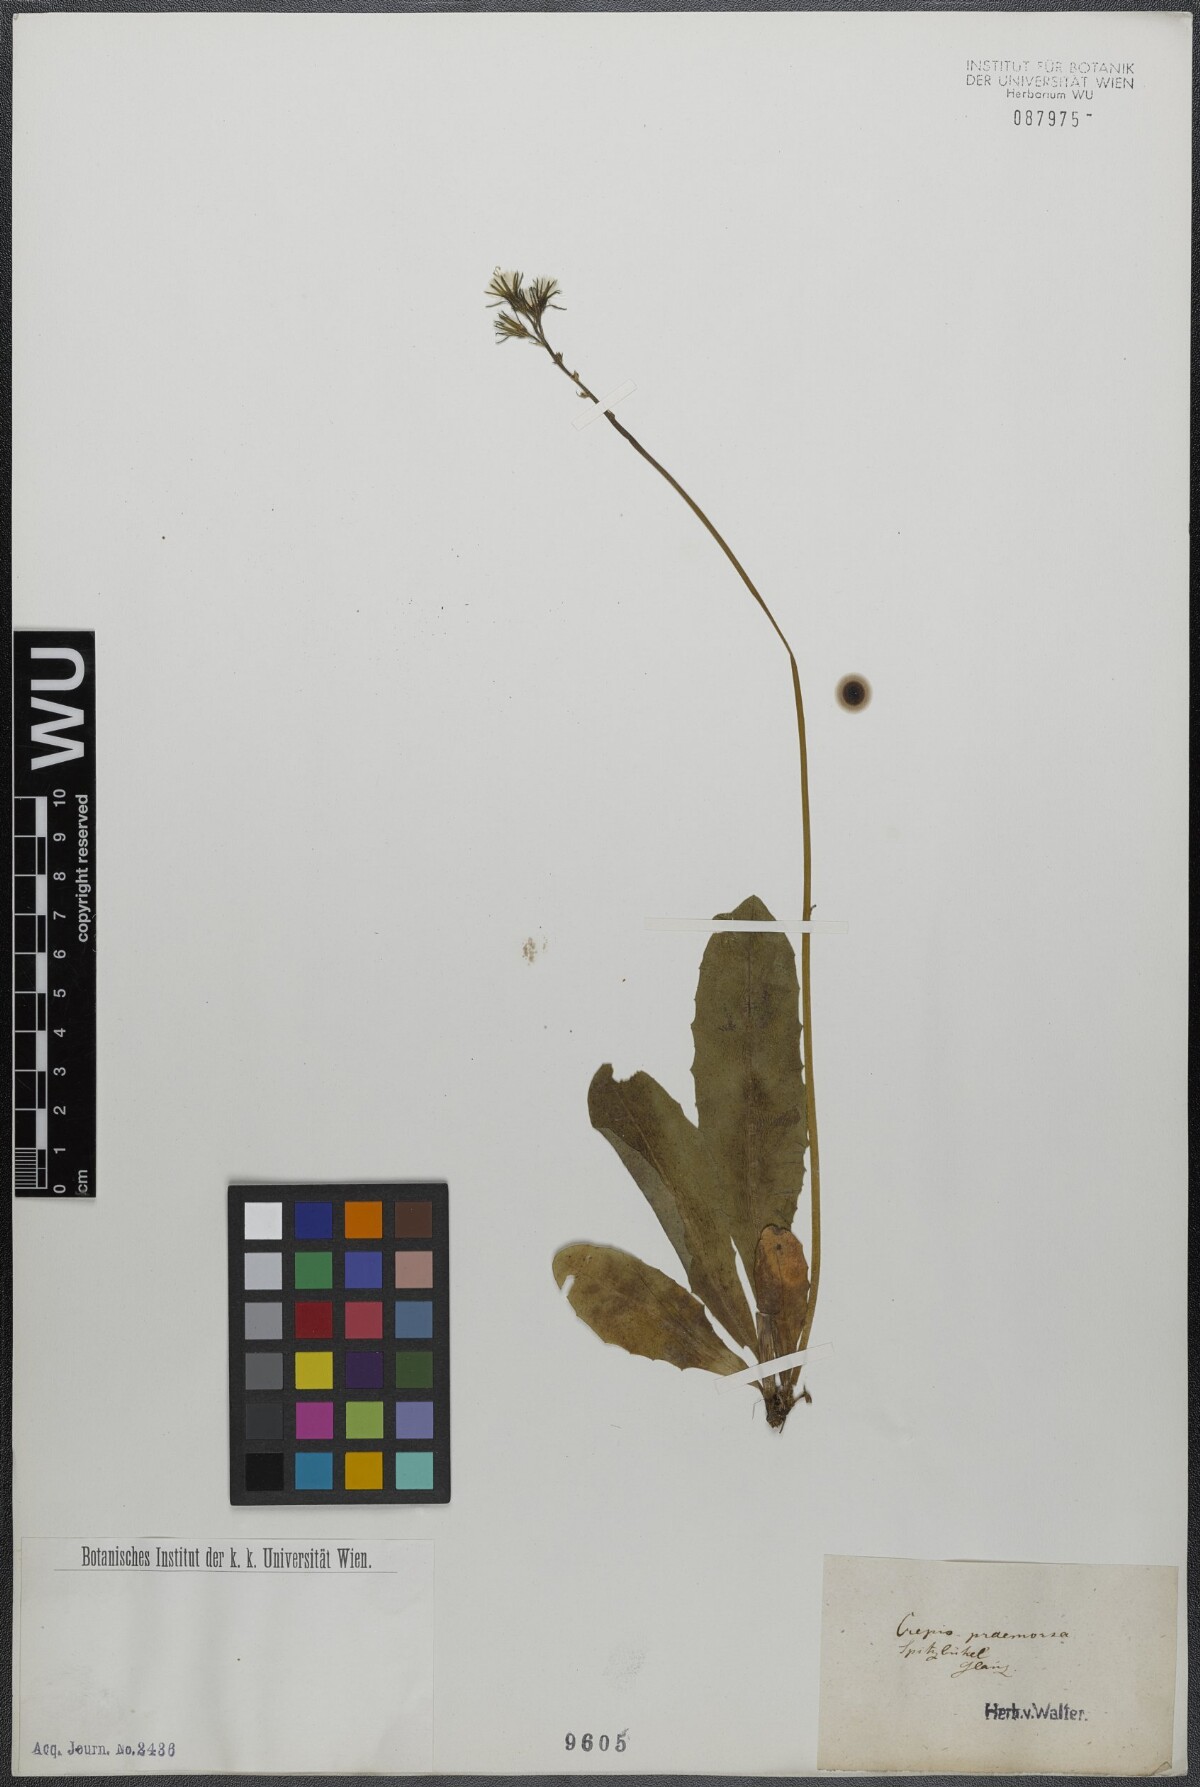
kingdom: Plantae
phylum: Tracheophyta
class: Magnoliopsida
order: Asterales
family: Asteraceae
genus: Crepis
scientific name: Crepis praemorsa
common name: Leafless hawk's-beard
